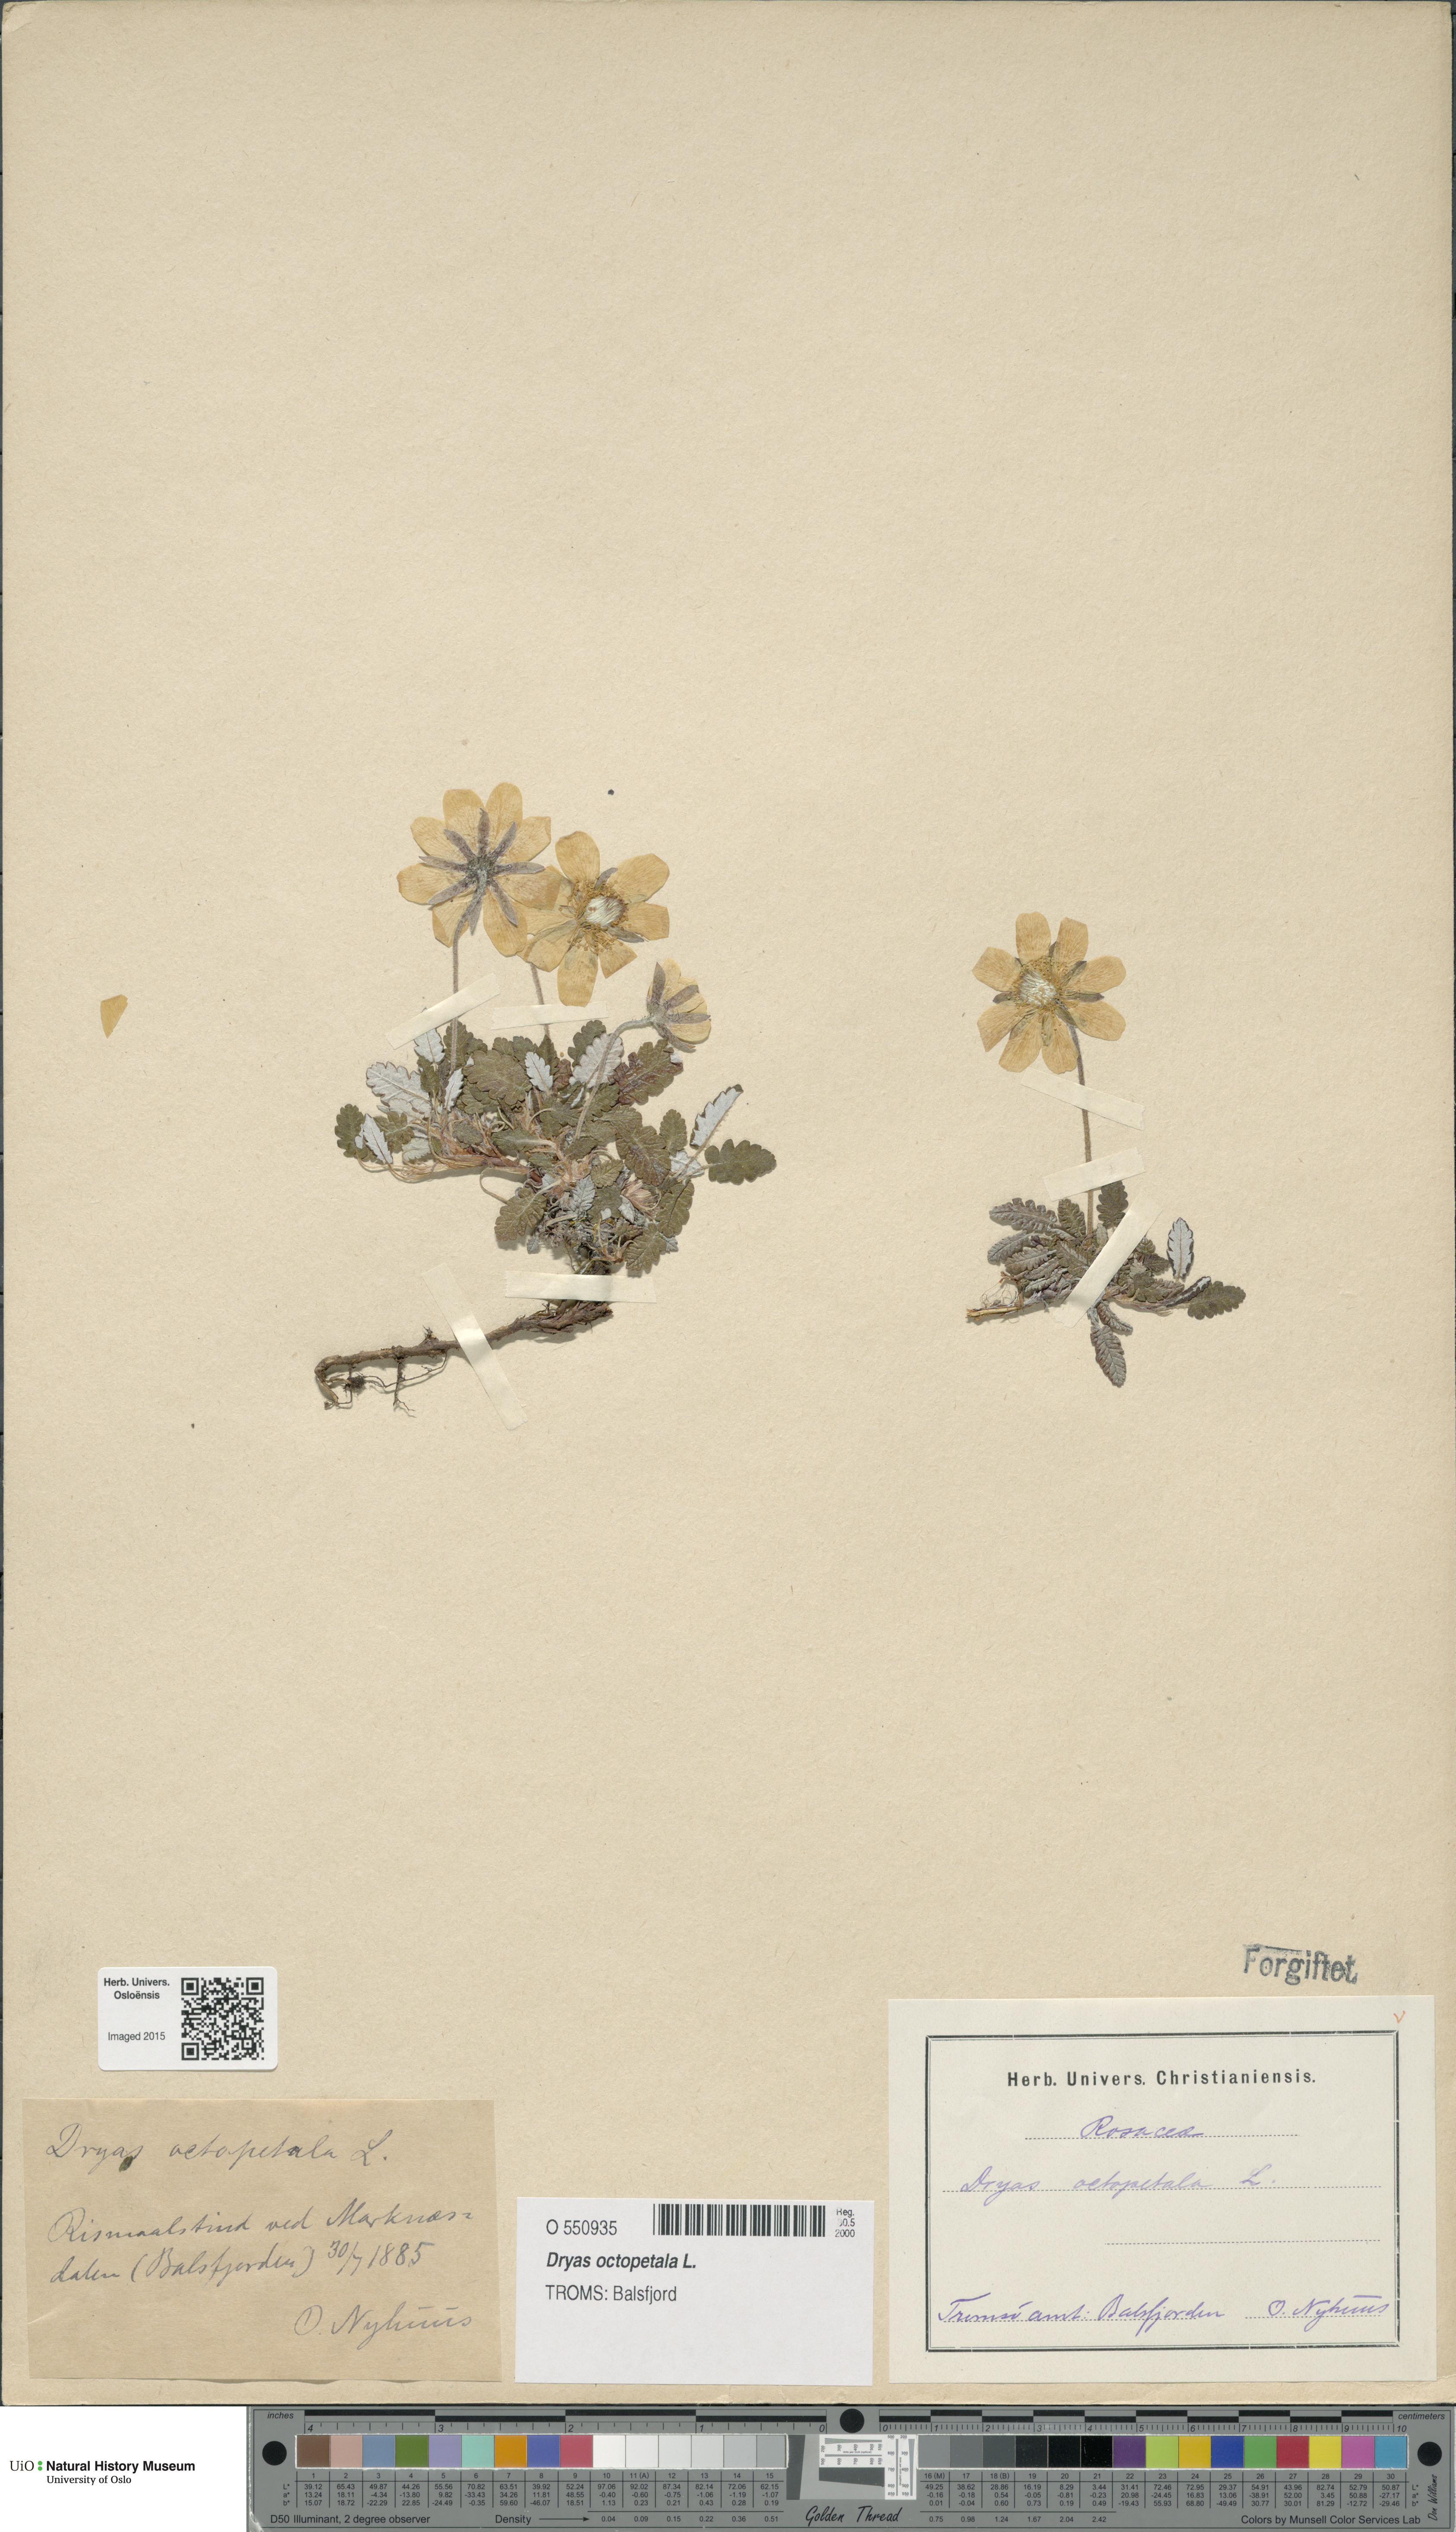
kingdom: Plantae
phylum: Tracheophyta
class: Magnoliopsida
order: Rosales
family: Rosaceae
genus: Dryas
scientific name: Dryas octopetala
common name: Eight-petal mountain-avens
